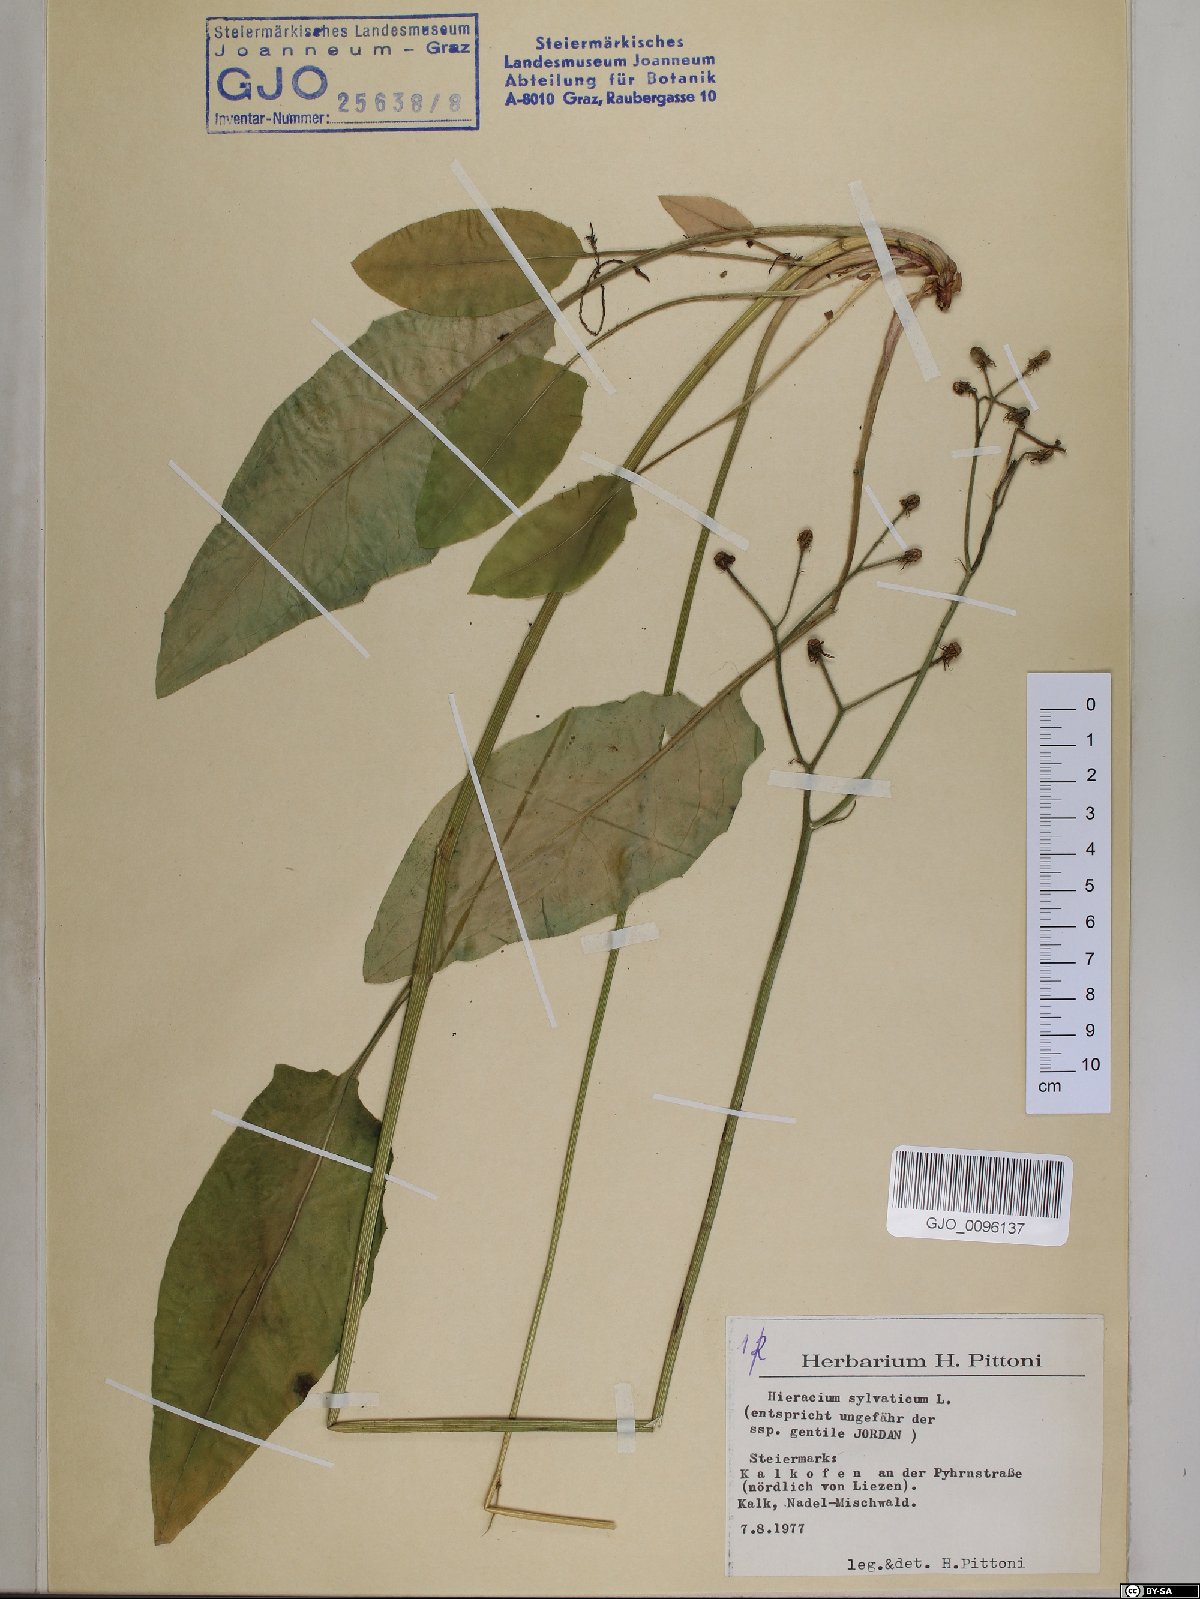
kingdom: Plantae
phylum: Tracheophyta
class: Magnoliopsida
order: Asterales
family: Asteraceae
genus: Hieracium
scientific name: Hieracium murorum
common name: Wall hawkweed
